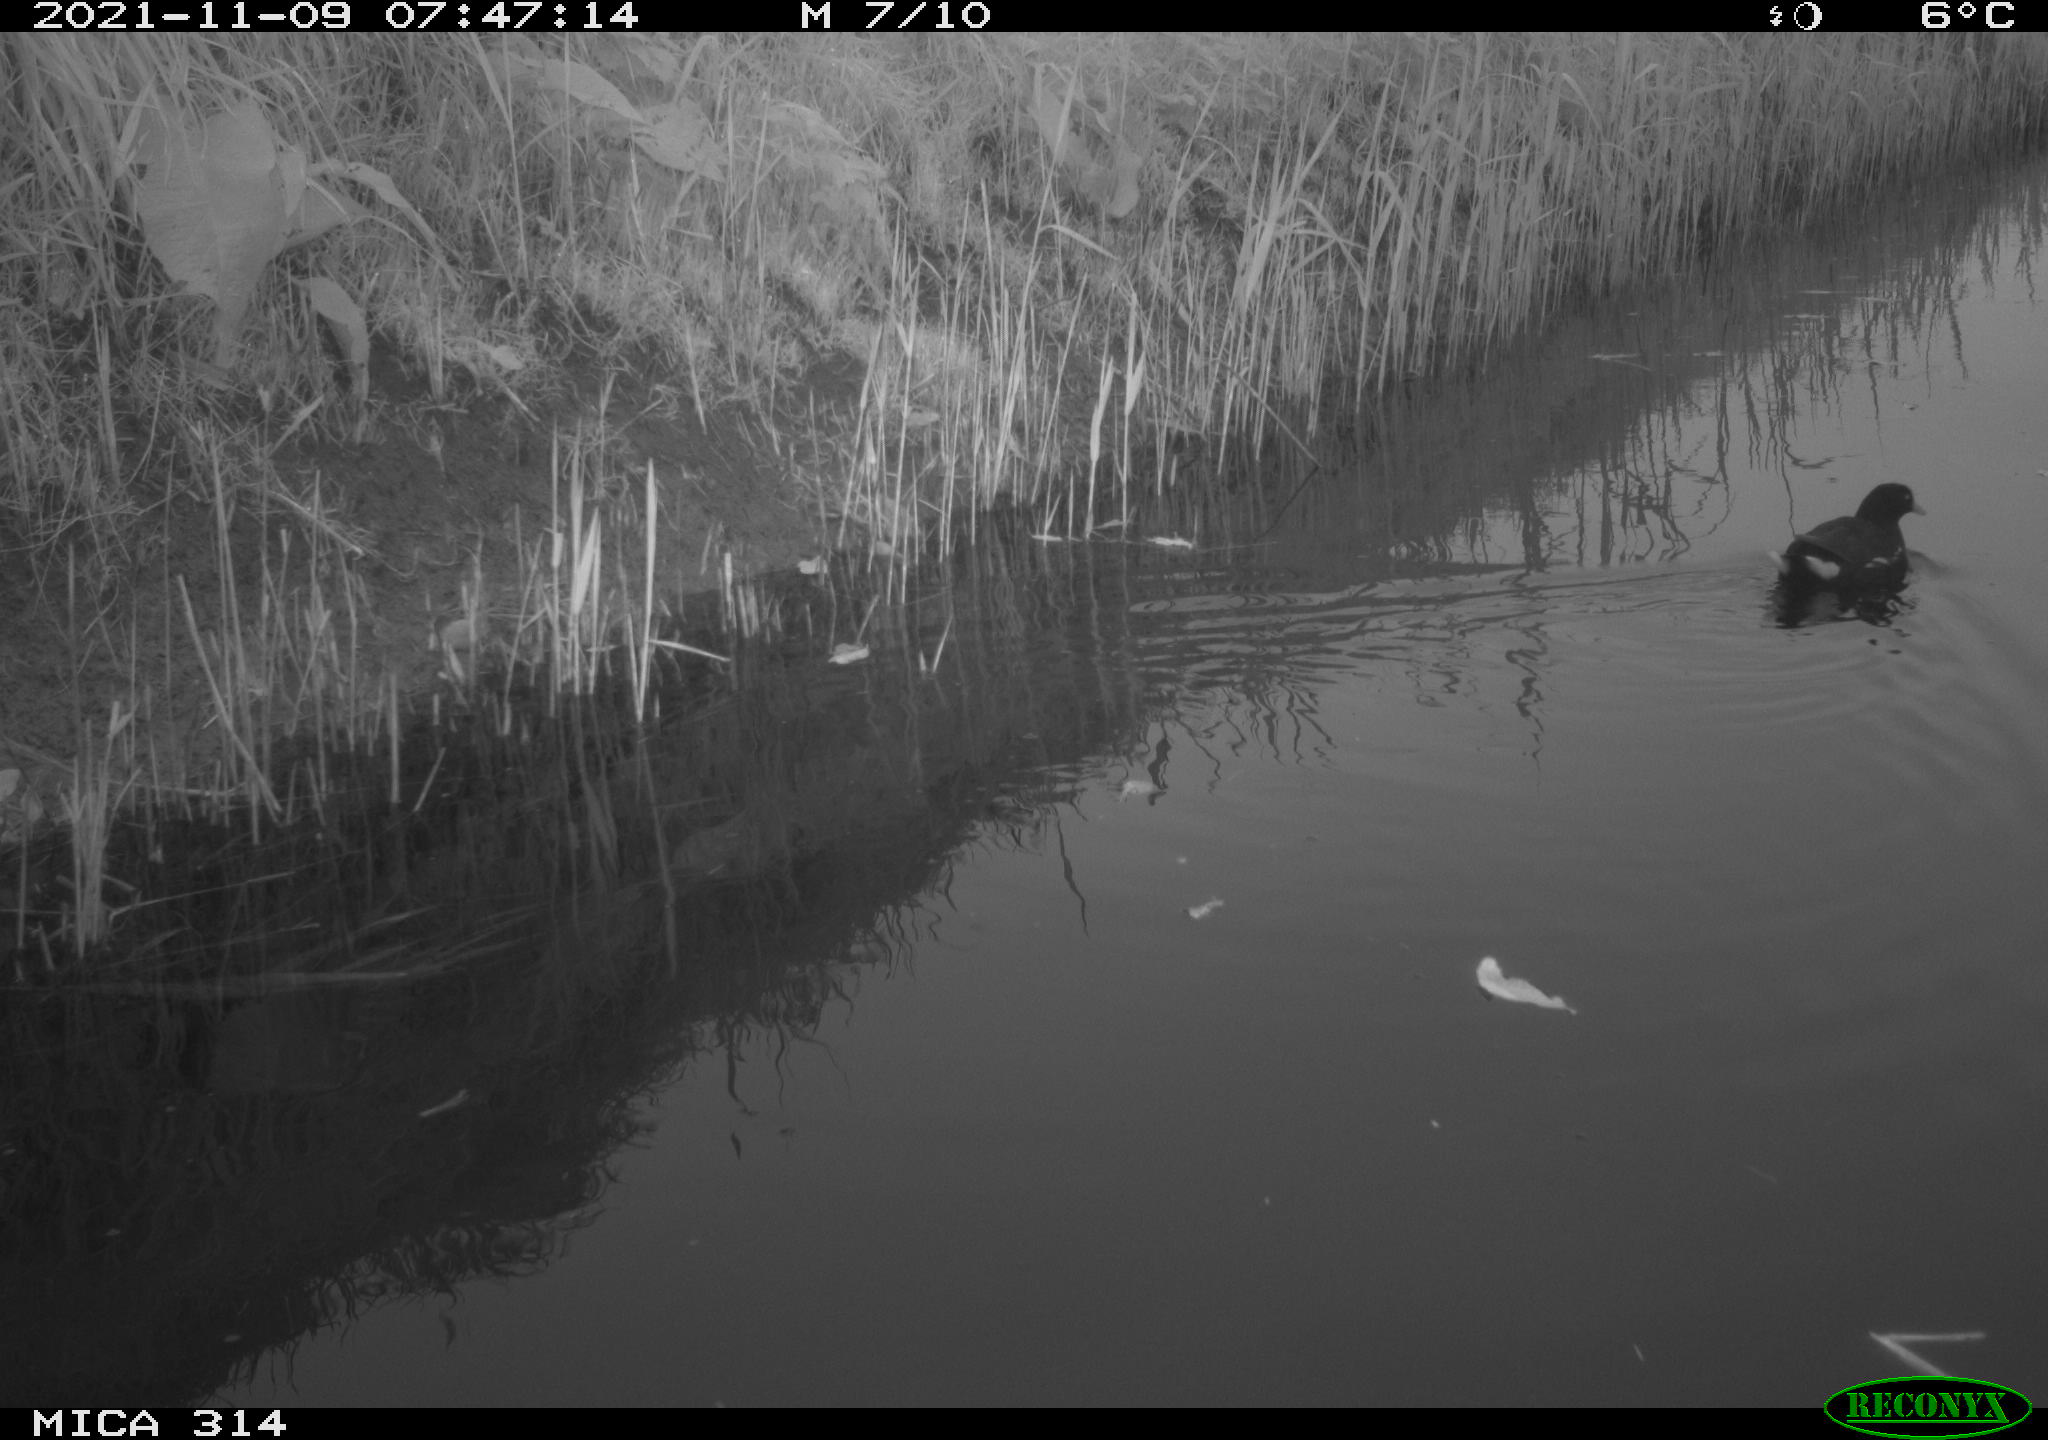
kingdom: Animalia
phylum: Chordata
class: Aves
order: Gruiformes
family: Rallidae
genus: Gallinula
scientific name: Gallinula chloropus
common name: Common moorhen
